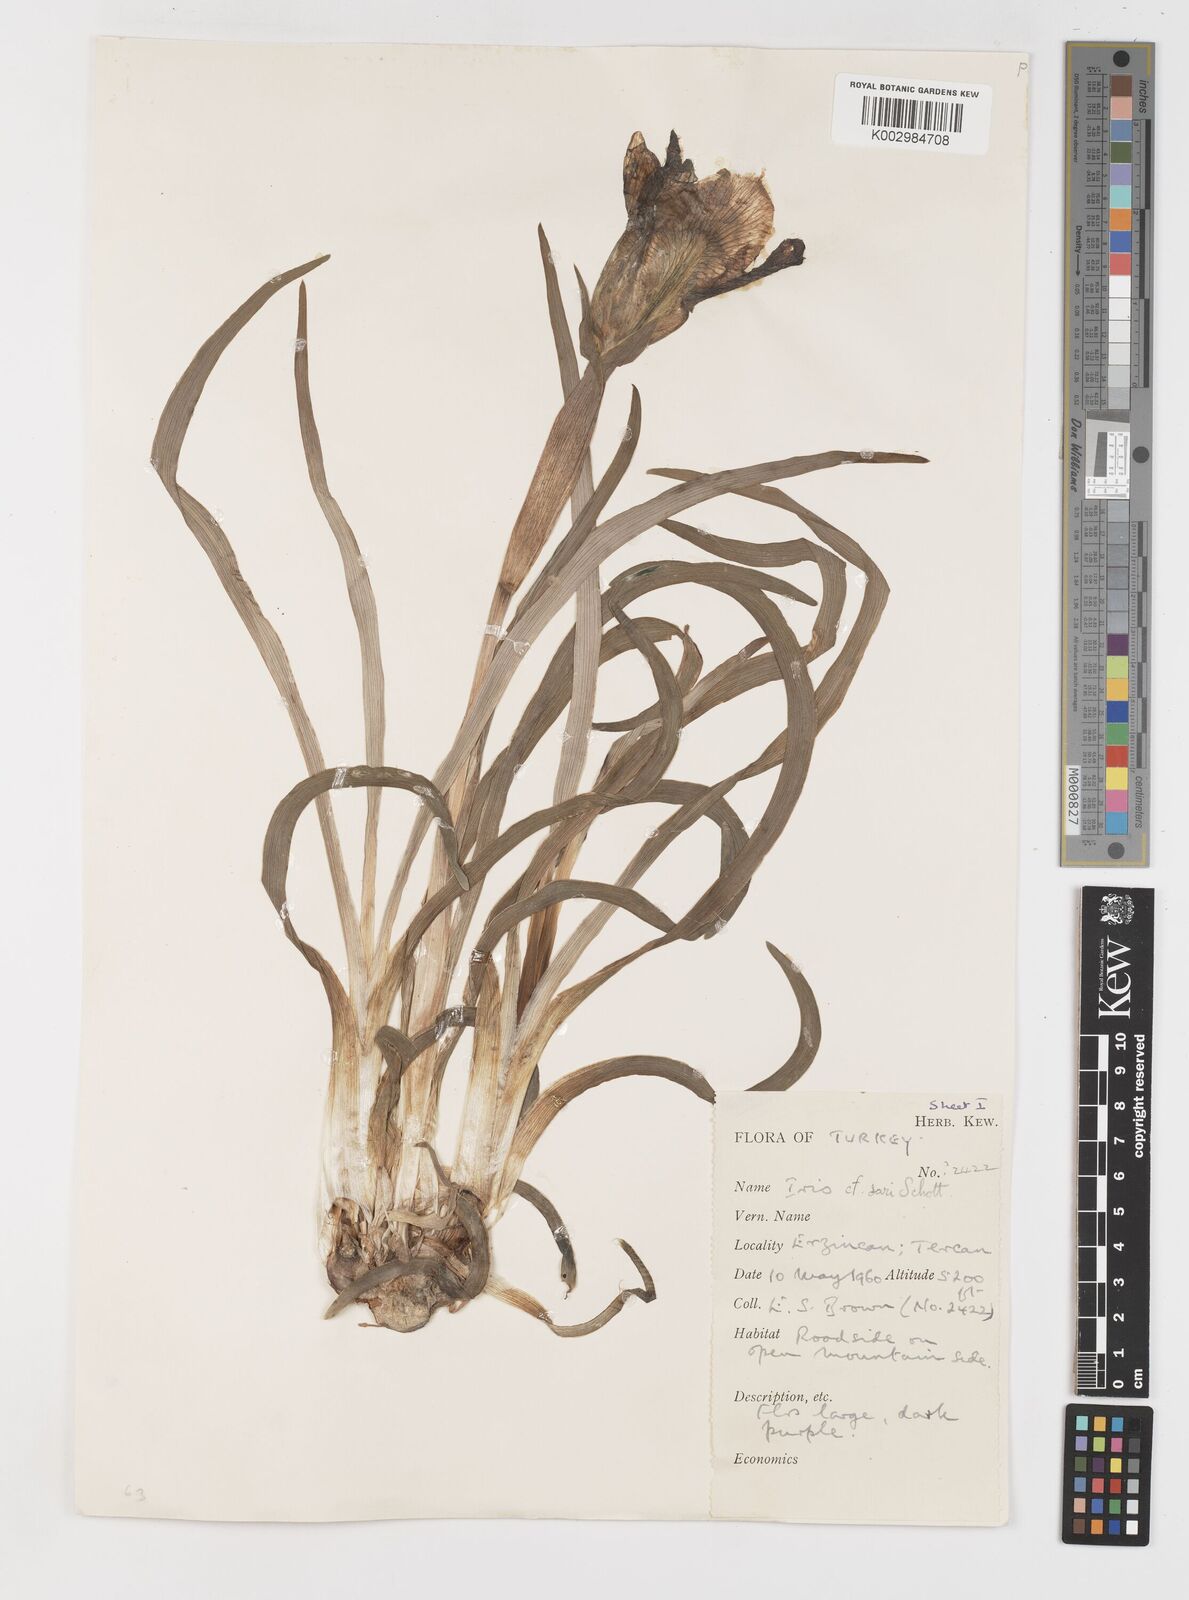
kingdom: Plantae
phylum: Tracheophyta
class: Liliopsida
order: Asparagales
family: Iridaceae
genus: Iris
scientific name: Iris sari
